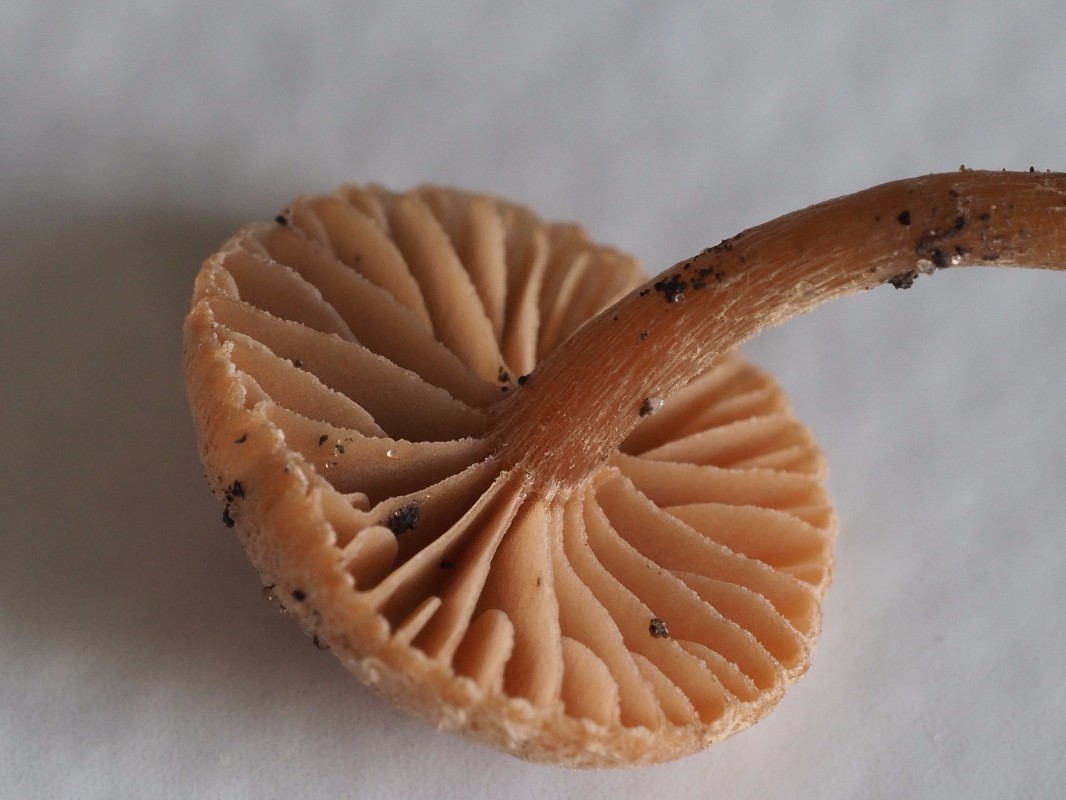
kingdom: Fungi
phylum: Basidiomycota
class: Agaricomycetes
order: Agaricales
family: Tubariaceae
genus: Tubaria
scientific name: Tubaria furfuracea
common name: kliddet fnughat
